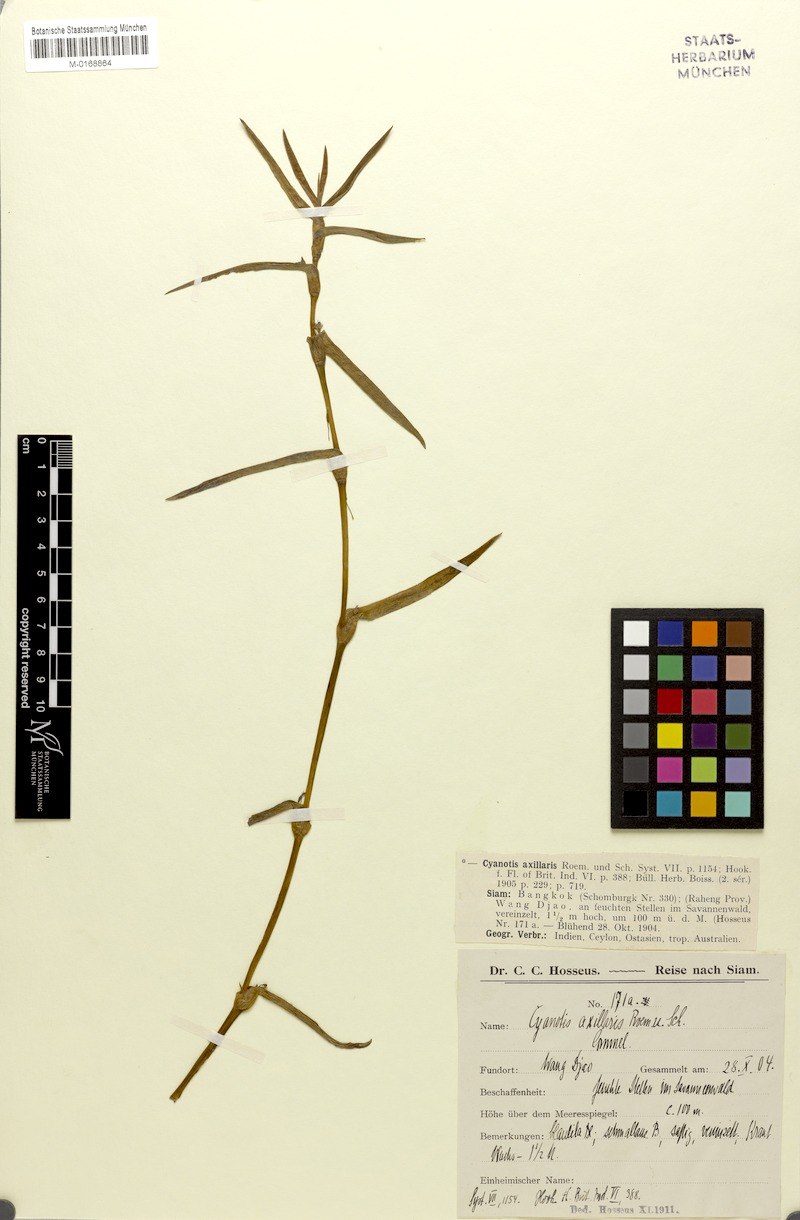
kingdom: Plantae
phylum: Tracheophyta
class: Liliopsida
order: Commelinales
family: Commelinaceae
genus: Cyanotis
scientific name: Cyanotis axillaris
